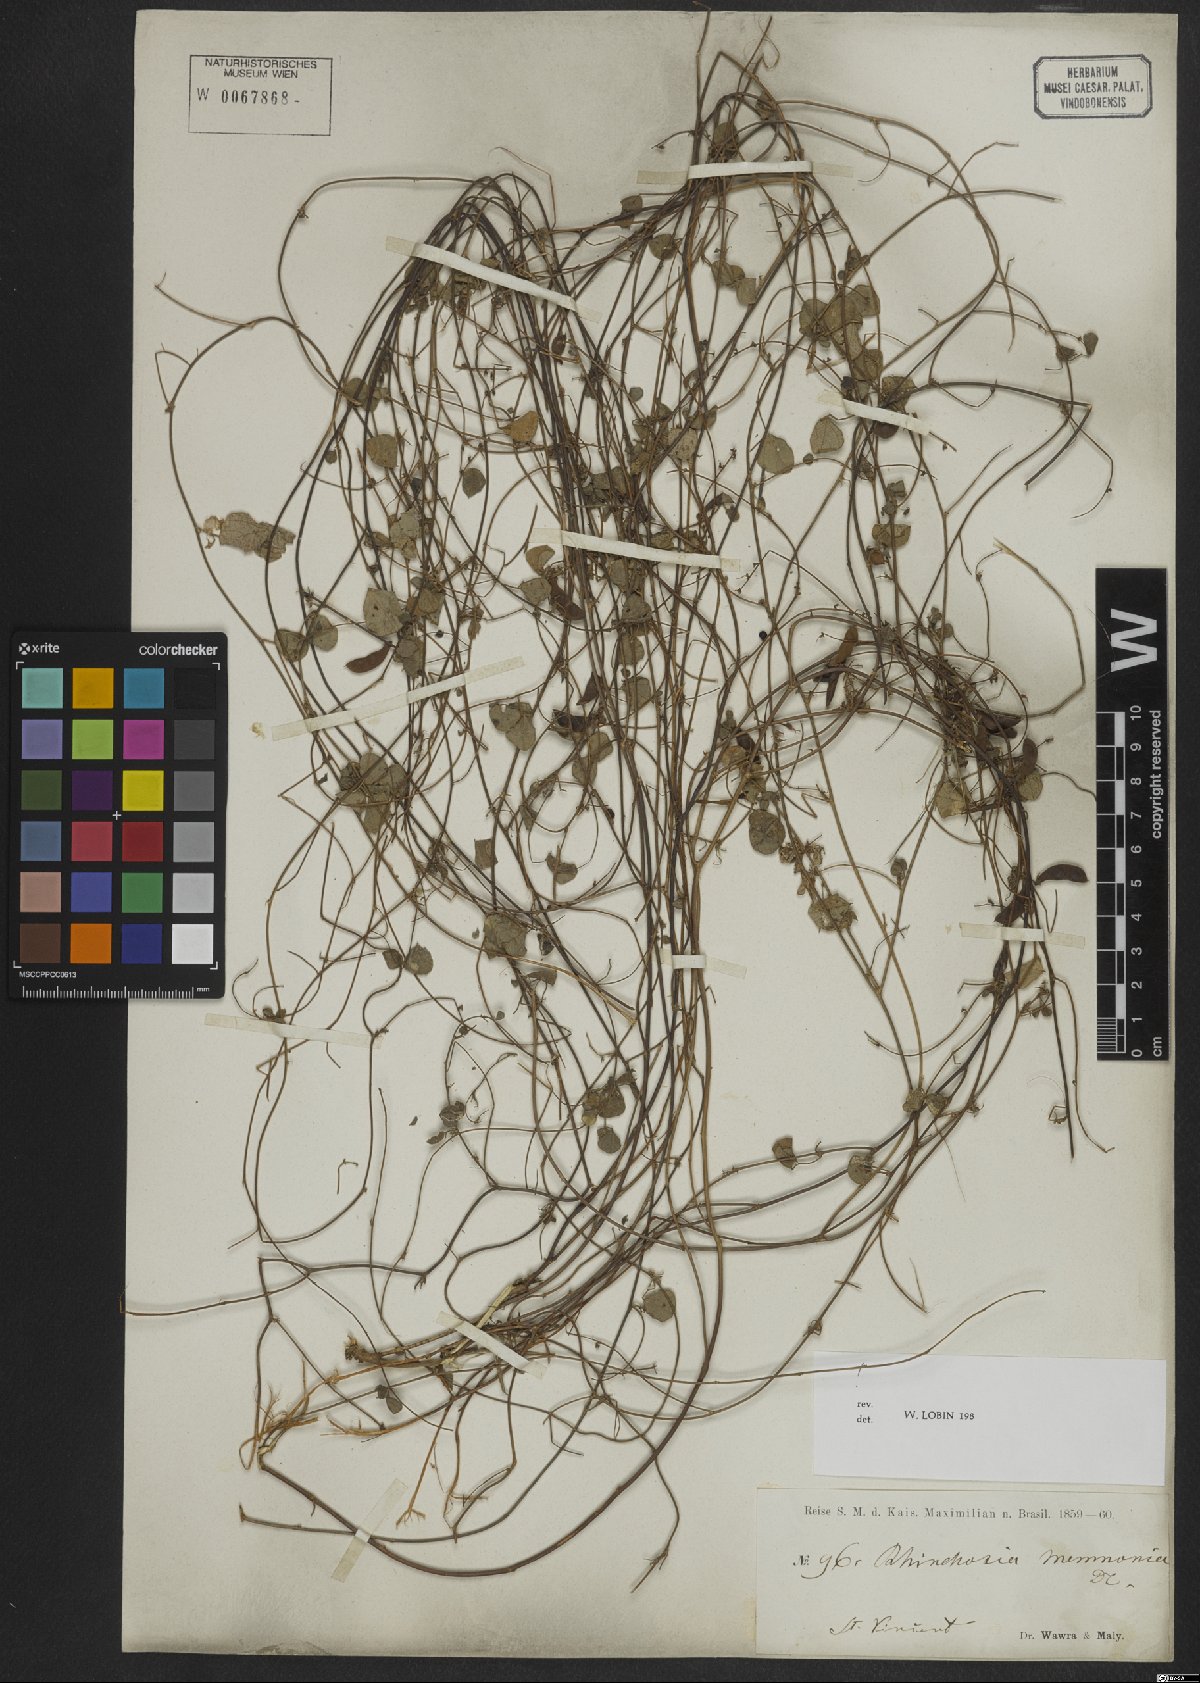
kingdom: Plantae
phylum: Tracheophyta
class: Magnoliopsida
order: Fabales
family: Fabaceae
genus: Rhynchosia
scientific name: Rhynchosia minima
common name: Least snoutbean
